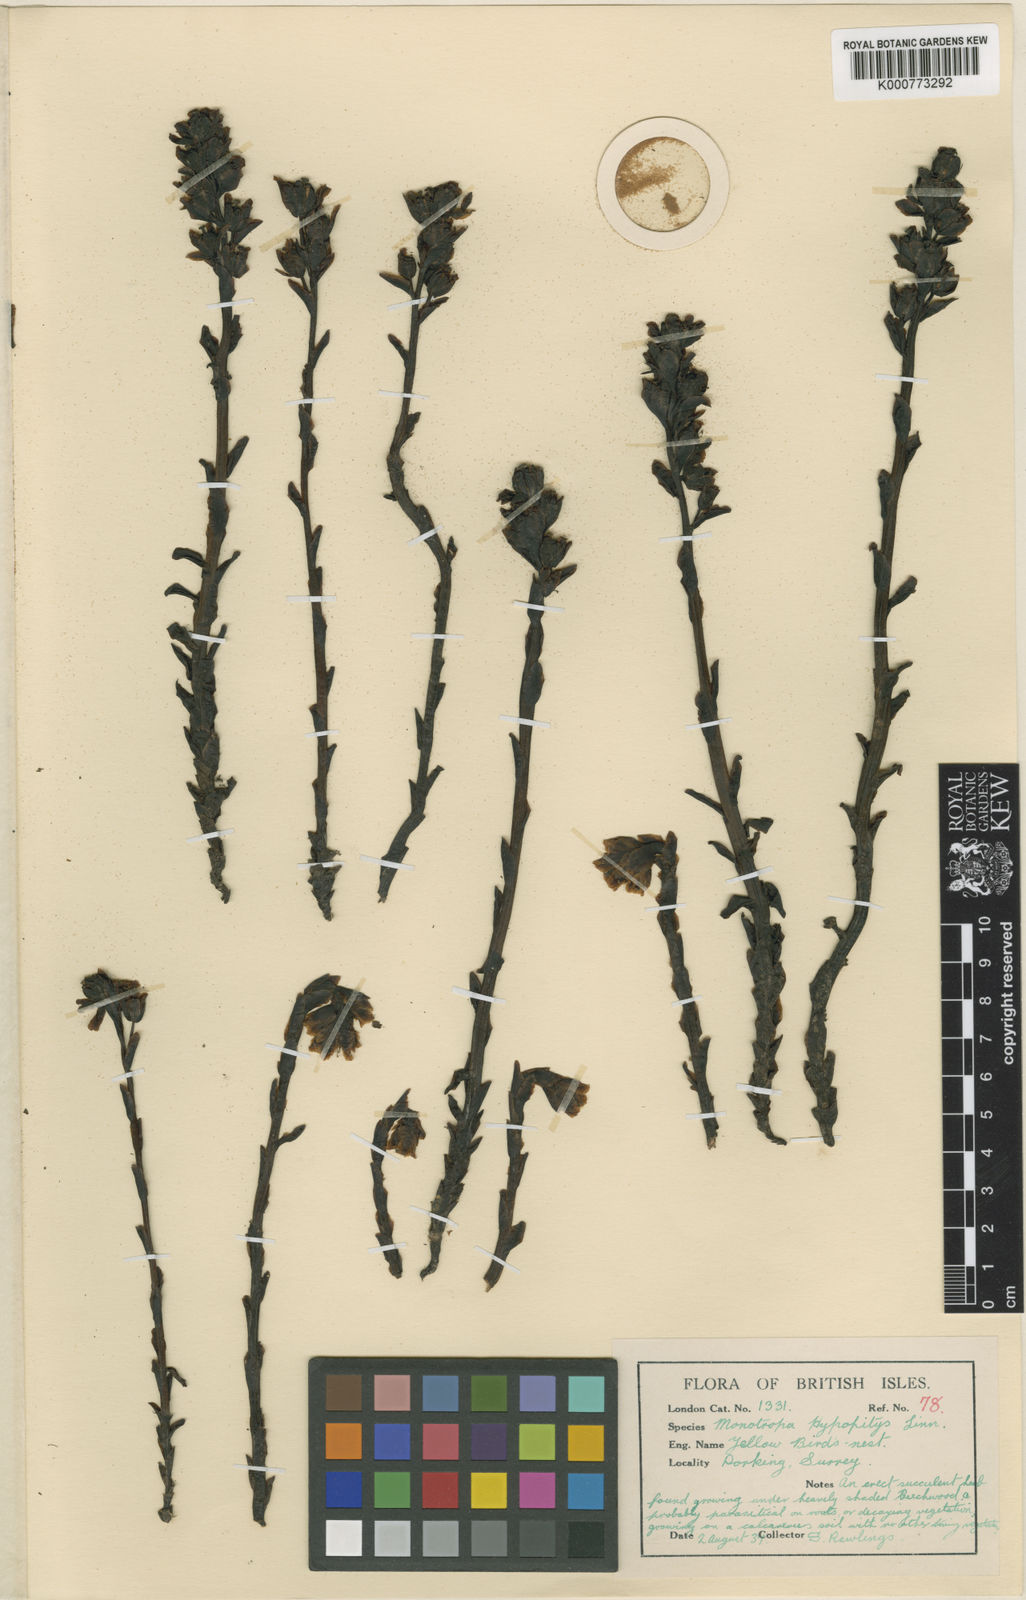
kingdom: Plantae
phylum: Tracheophyta
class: Magnoliopsida
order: Ericales
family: Ericaceae
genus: Monotropa
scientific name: Monotropa
